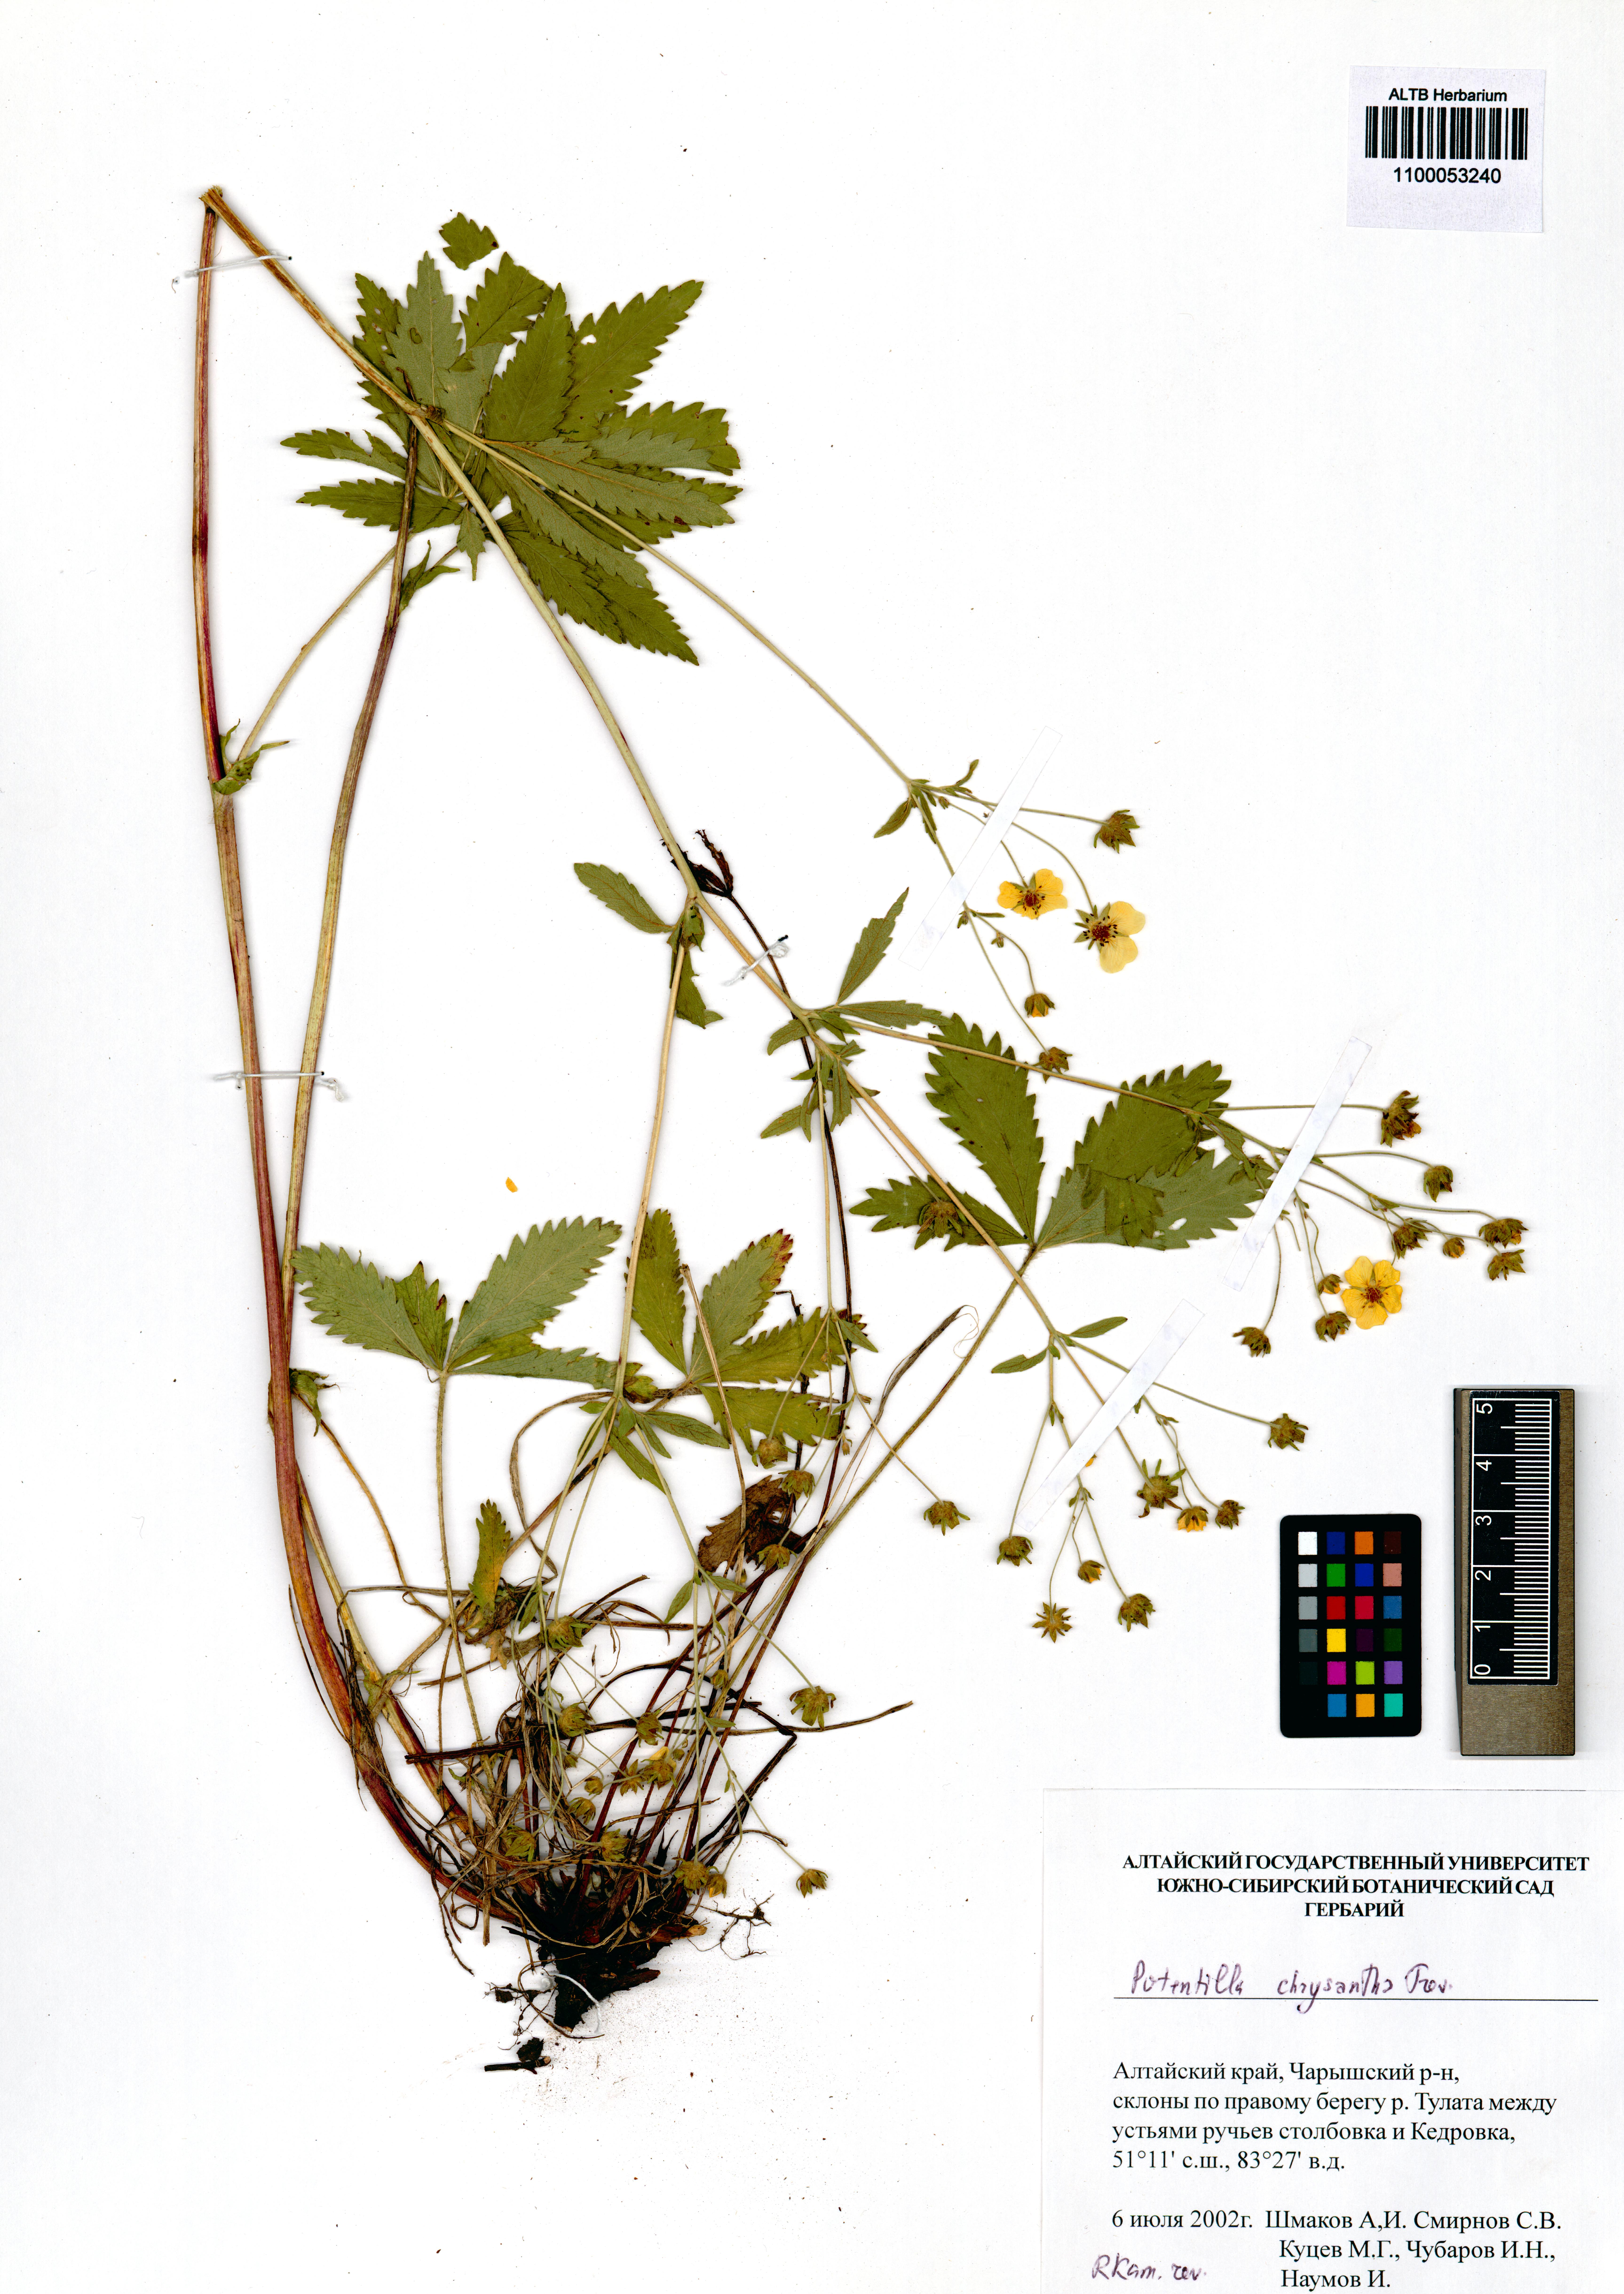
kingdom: Plantae
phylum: Tracheophyta
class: Magnoliopsida
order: Rosales
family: Rosaceae
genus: Potentilla
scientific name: Potentilla chrysantha
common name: Thuringian cinquefoil
